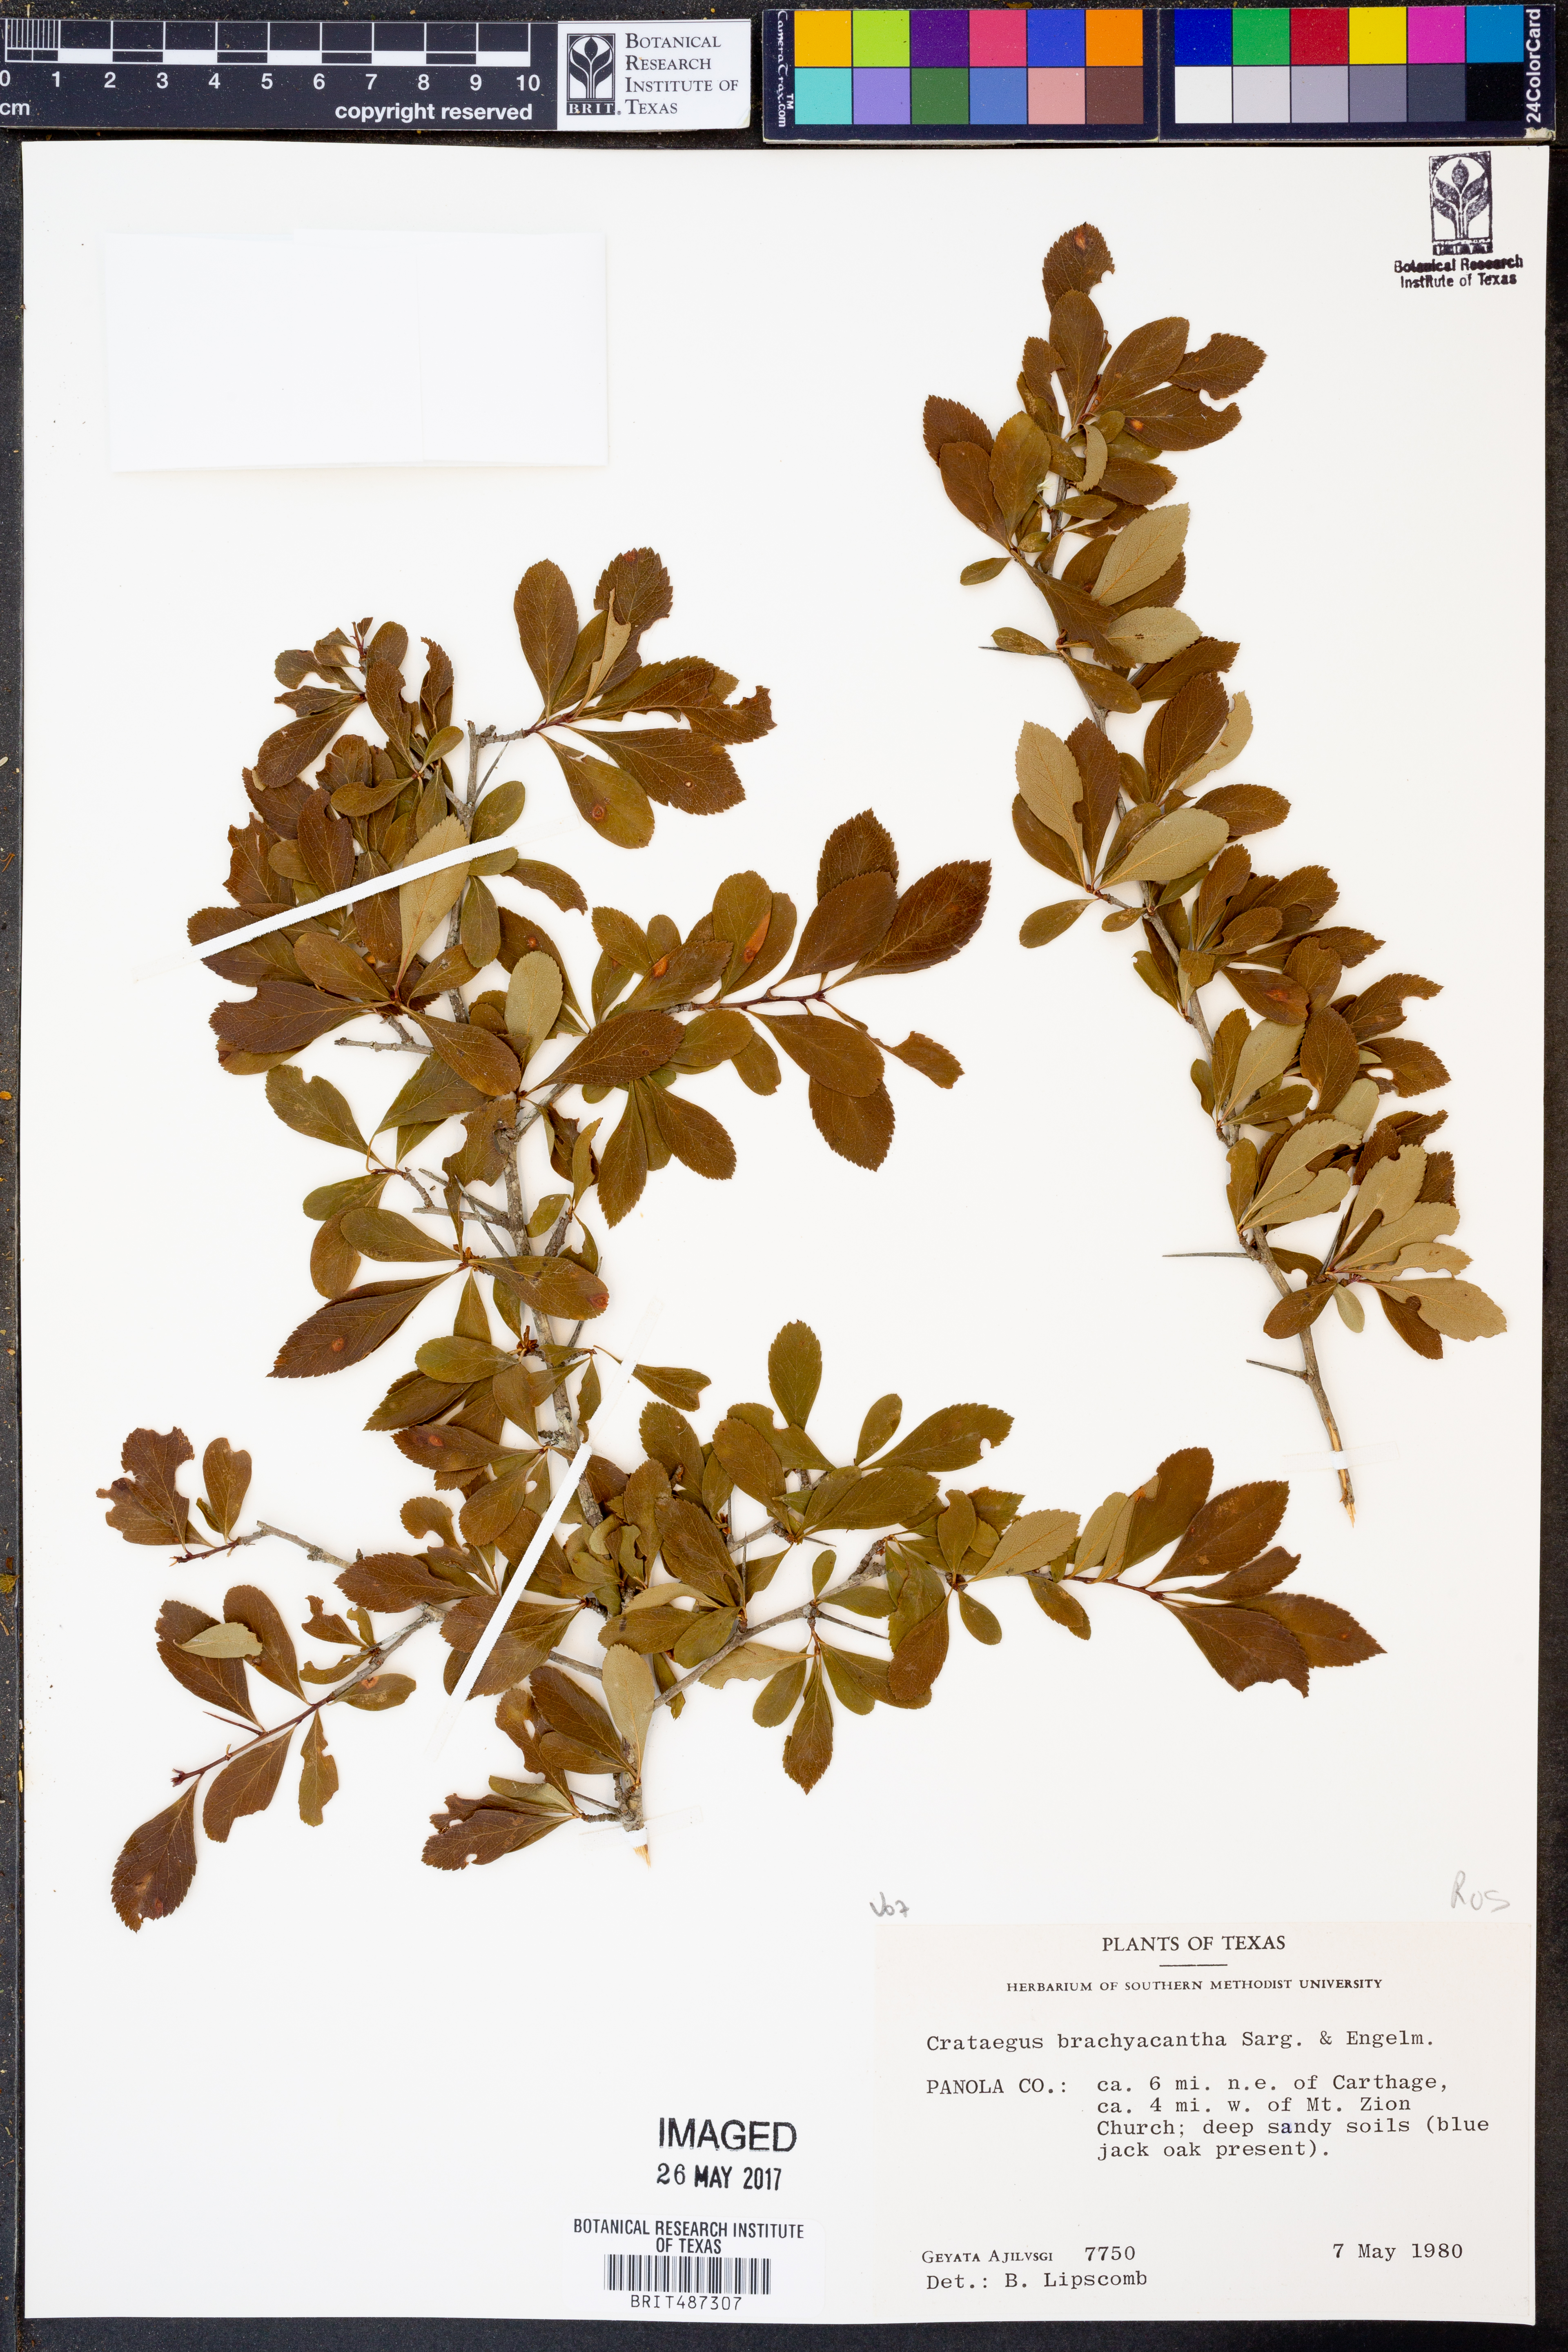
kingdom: Plantae
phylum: Tracheophyta
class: Magnoliopsida
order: Rosales
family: Rosaceae
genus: Crataegus
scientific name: Crataegus brachyacantha
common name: Blueberry-hawthorn
